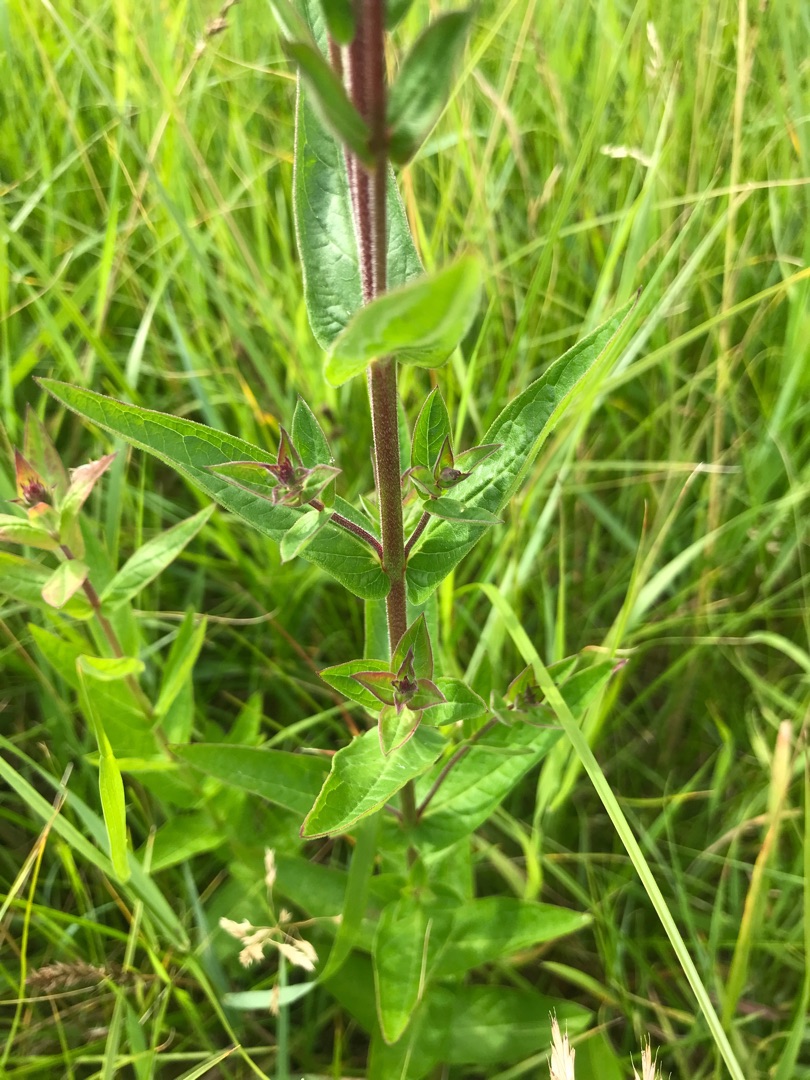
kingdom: Plantae
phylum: Tracheophyta
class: Magnoliopsida
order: Myrtales
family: Lythraceae
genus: Lythrum
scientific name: Lythrum salicaria
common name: Kattehale
